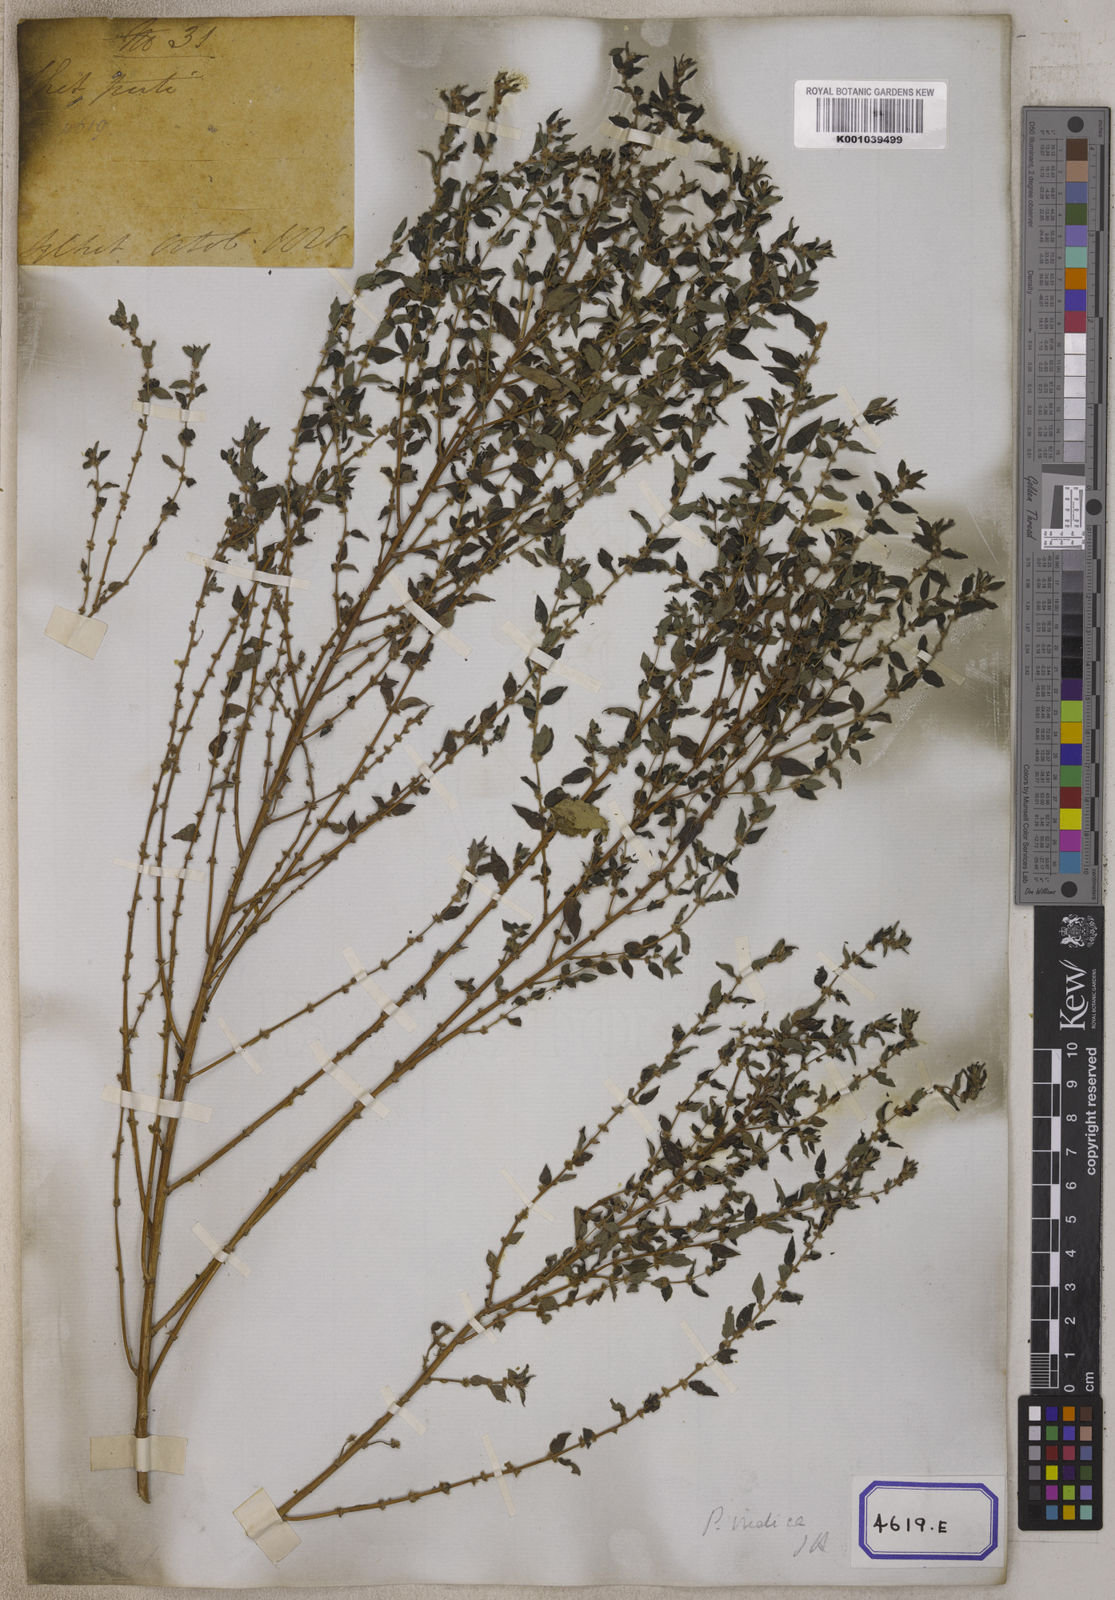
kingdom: Plantae
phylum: Tracheophyta
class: Magnoliopsida
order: Rosales
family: Urticaceae
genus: Pouzolzia
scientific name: Pouzolzia zeylanica
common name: Graceful pouzolzsbush
